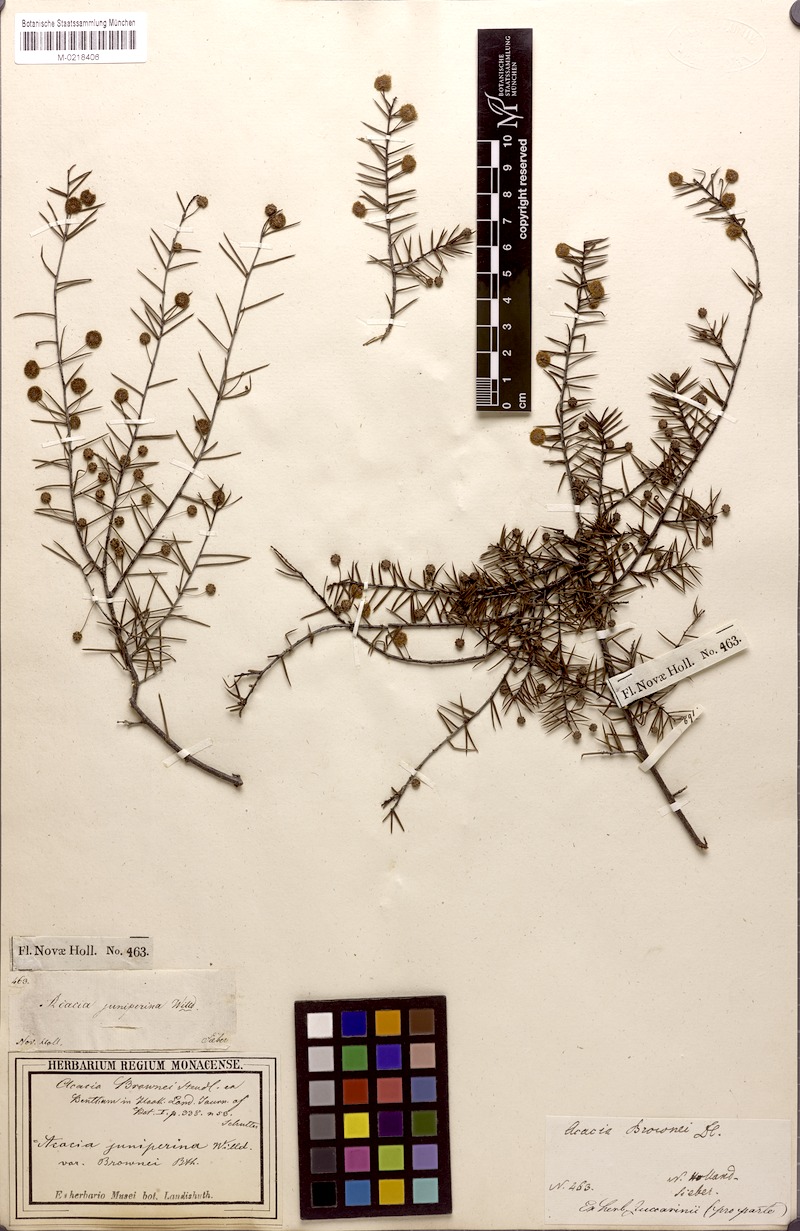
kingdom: Plantae
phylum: Tracheophyta
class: Magnoliopsida
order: Fabales
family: Fabaceae
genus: Acacia
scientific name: Acacia brownii
